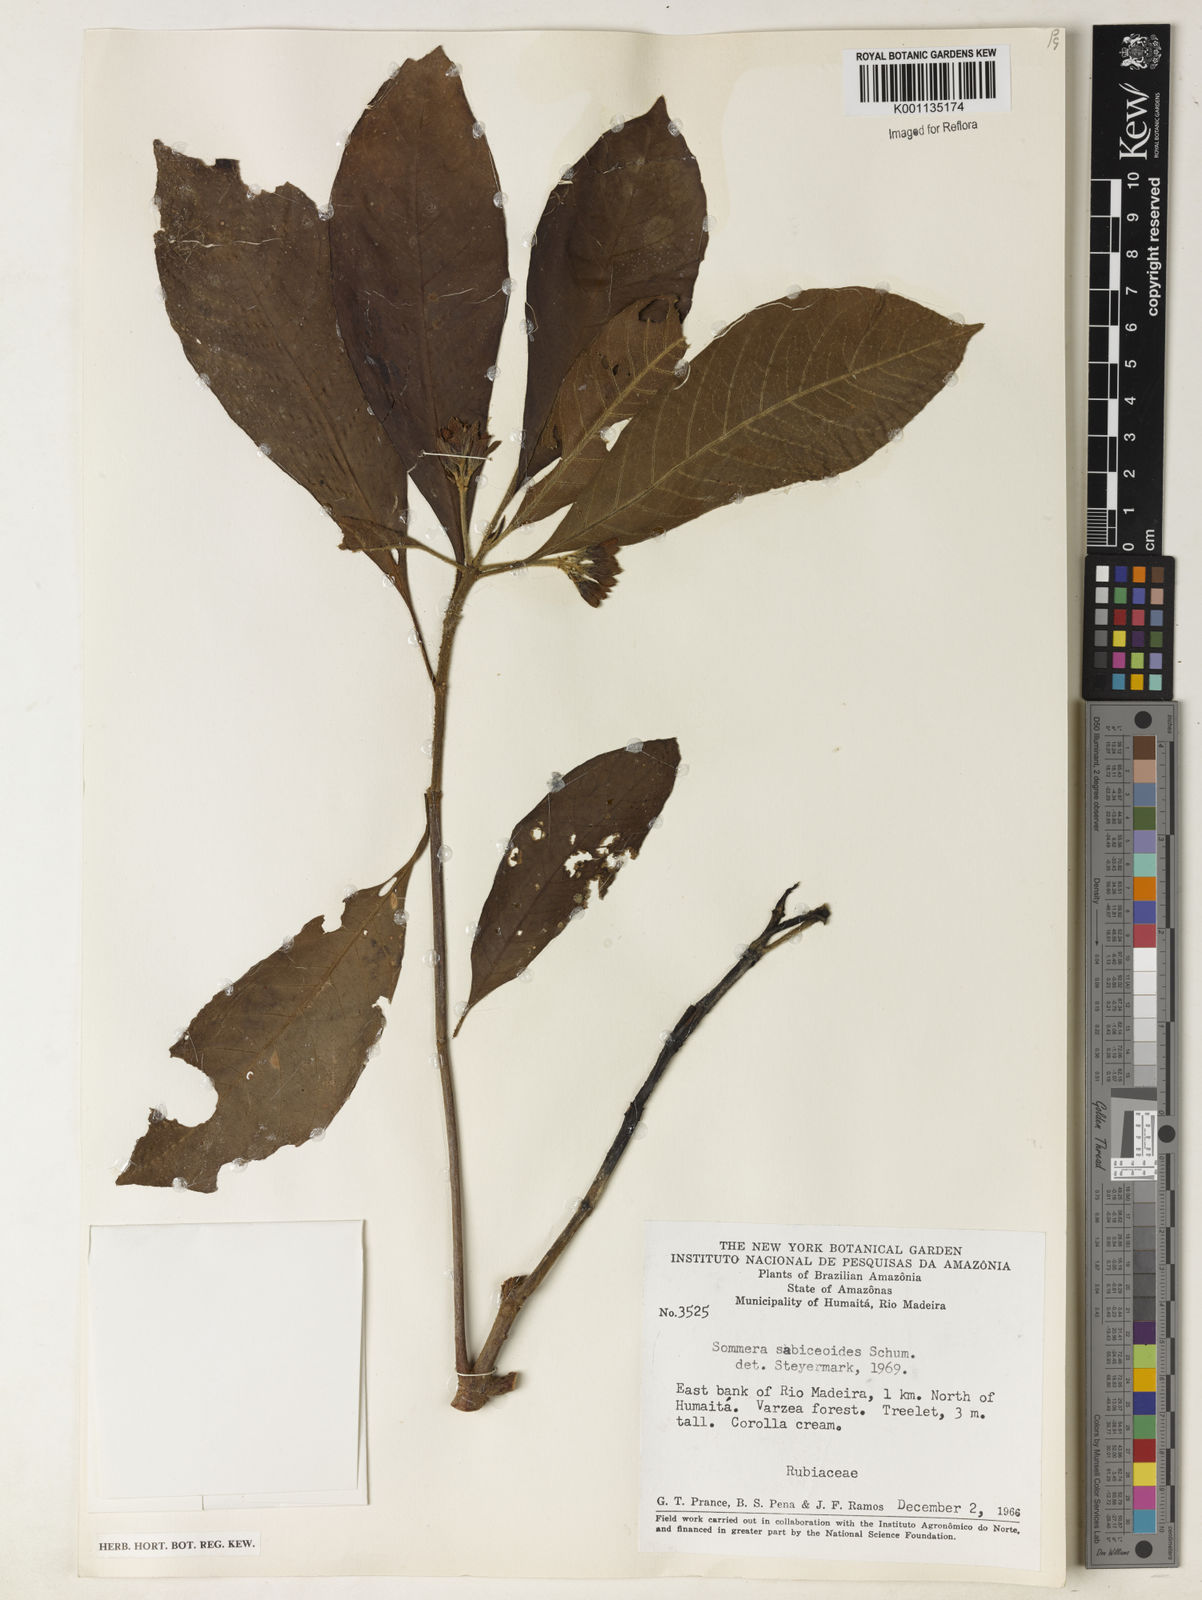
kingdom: Plantae
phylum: Tracheophyta
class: Magnoliopsida
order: Gentianales
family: Rubiaceae
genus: Sommera
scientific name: Sommera sabiceoides
